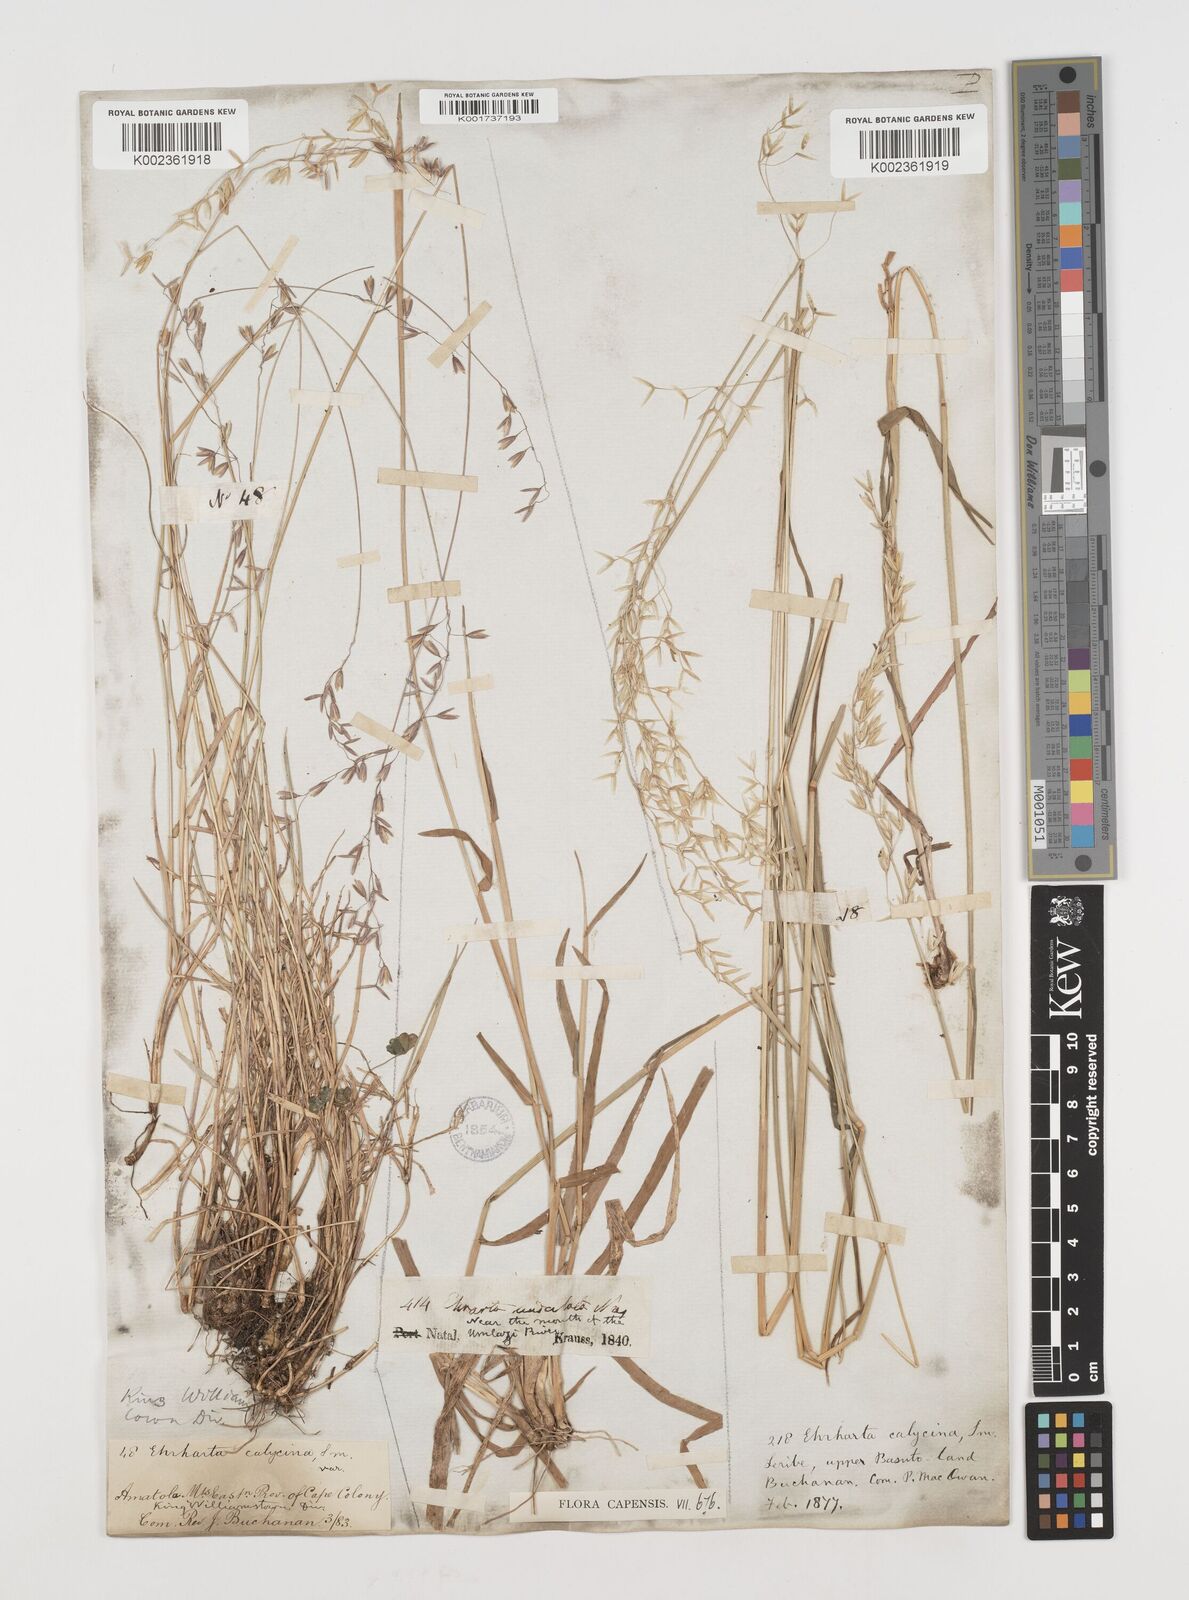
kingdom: Plantae
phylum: Tracheophyta
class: Liliopsida
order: Poales
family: Poaceae
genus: Ehrharta
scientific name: Ehrharta calycina
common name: Perennial veldtgrass
